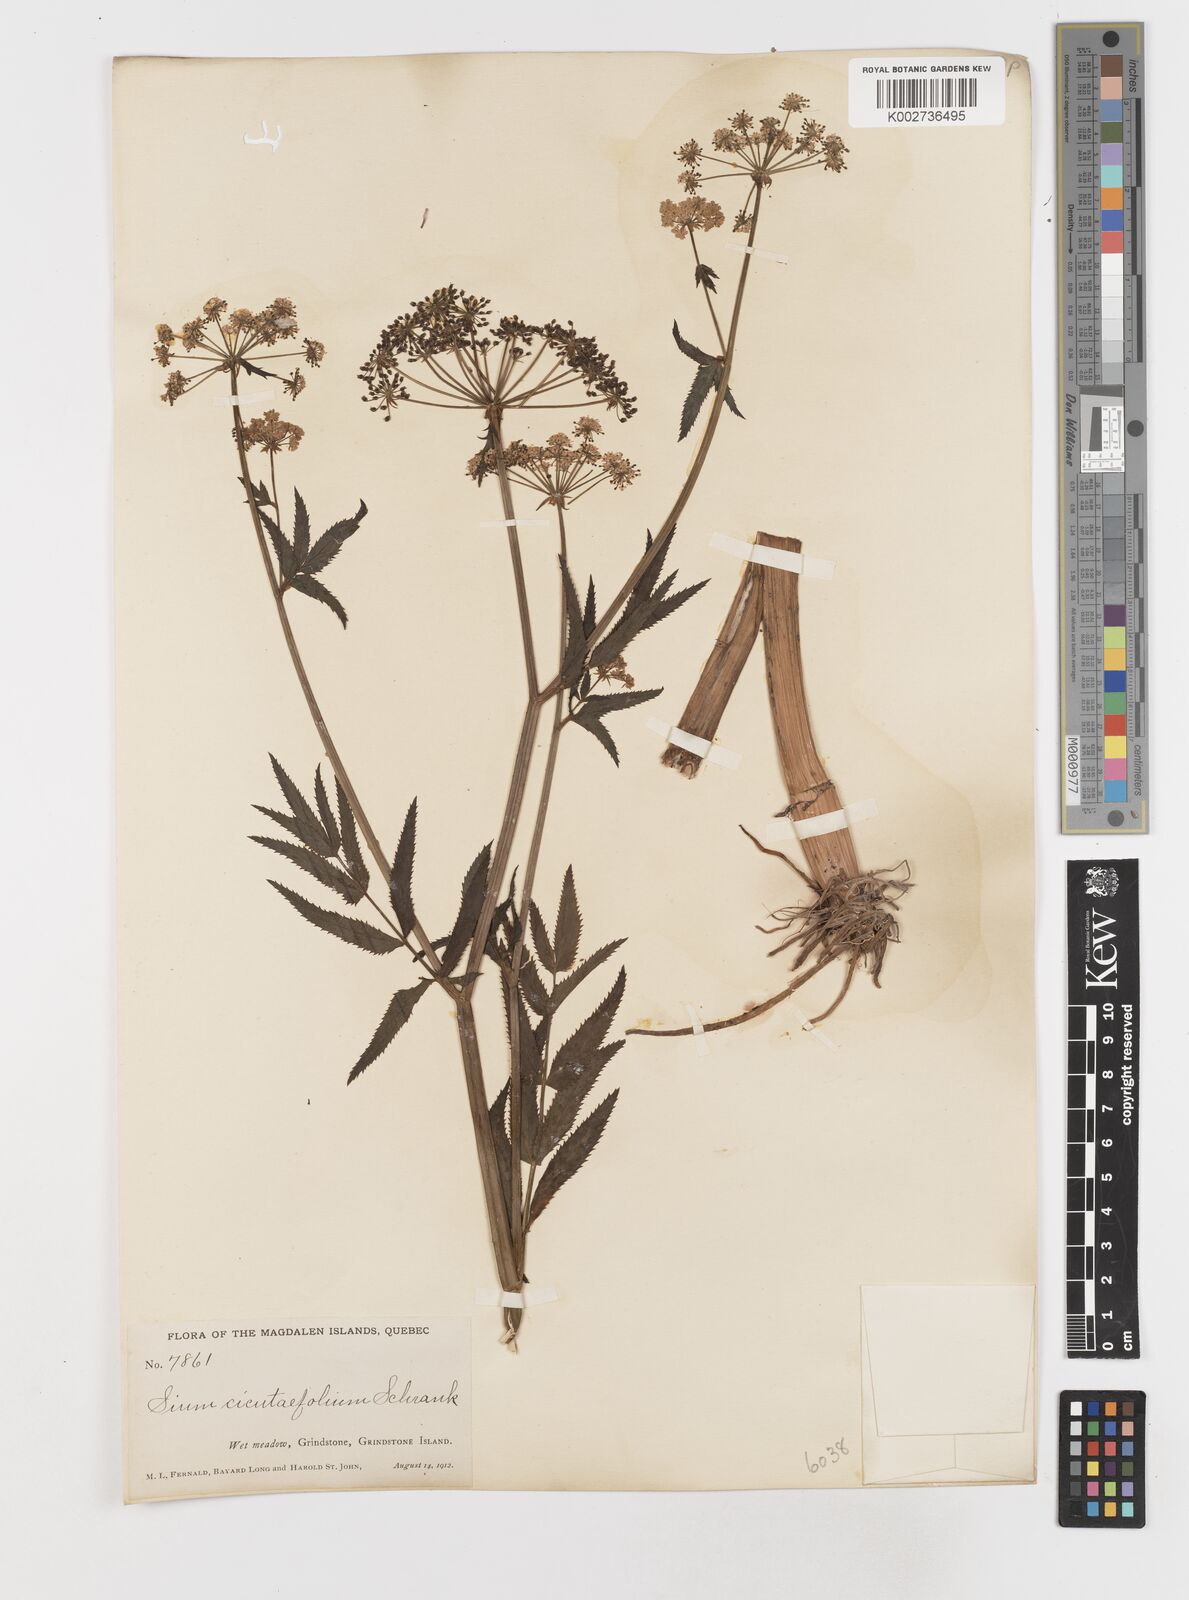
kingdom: Plantae
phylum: Tracheophyta
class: Magnoliopsida
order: Apiales
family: Apiaceae
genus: Sium
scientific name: Sium suave
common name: Hemlock water-parsnip
